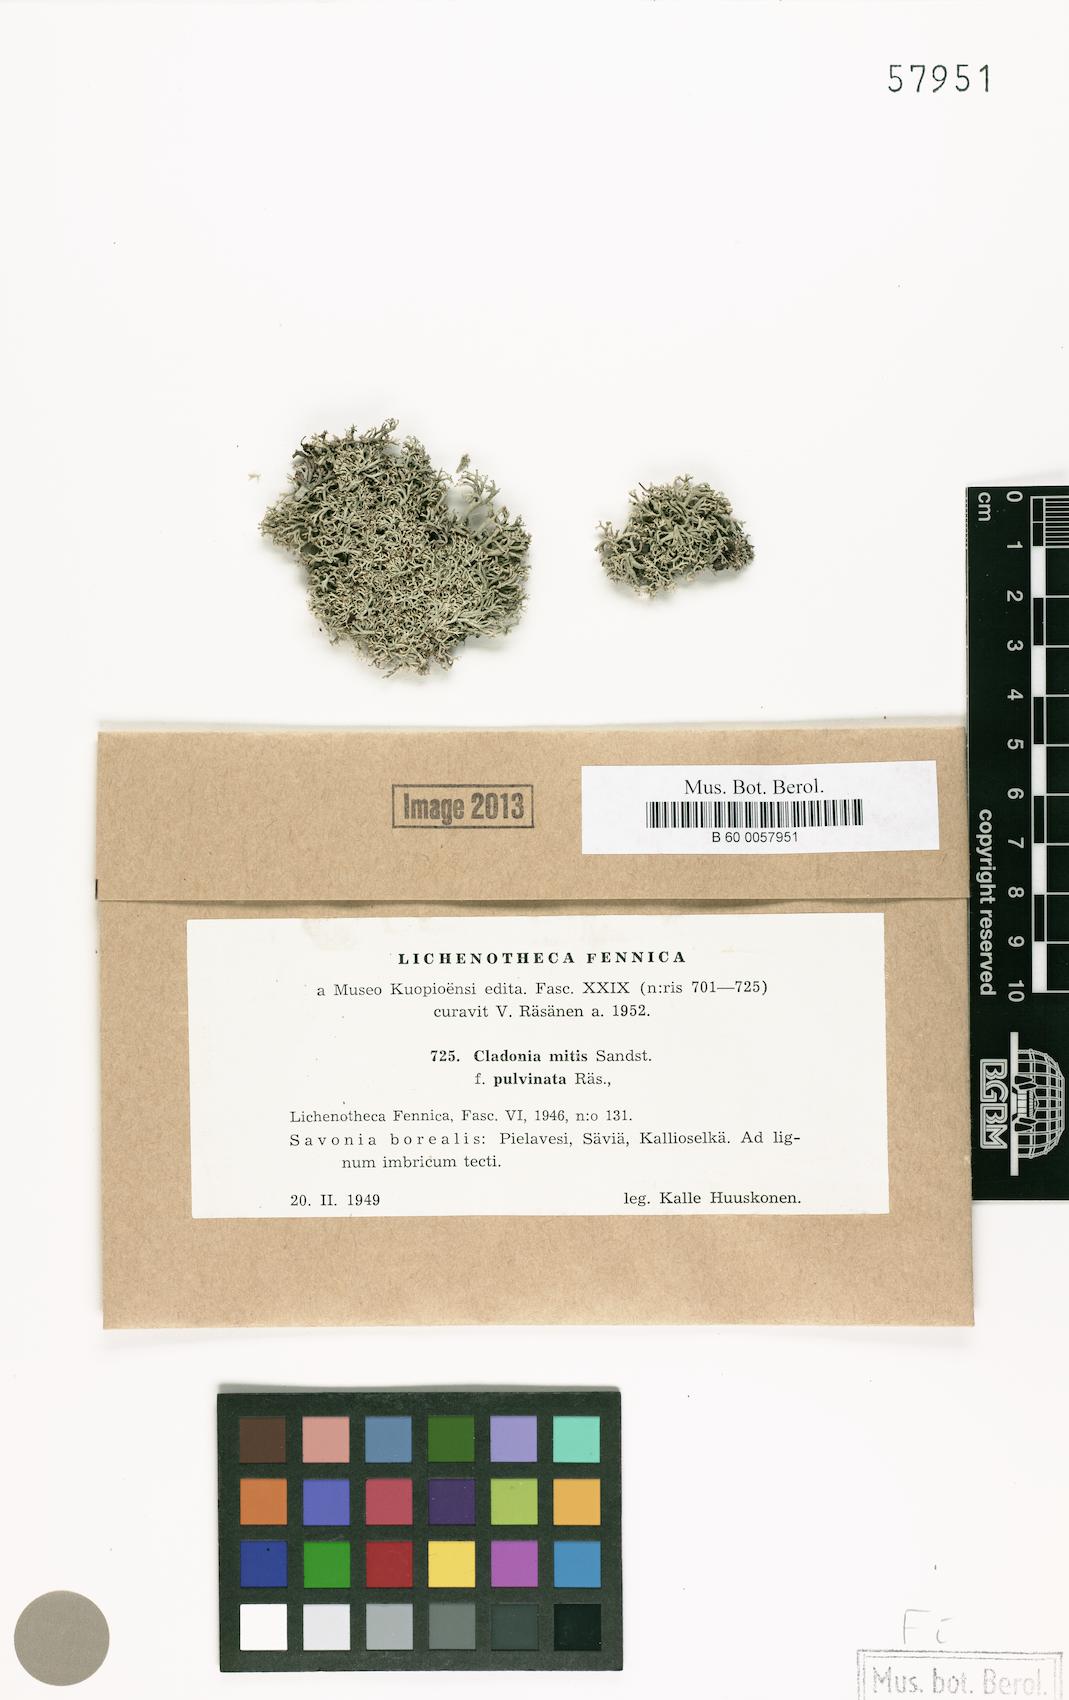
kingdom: Fungi
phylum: Ascomycota
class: Lecanoromycetes
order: Lecanorales
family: Cladoniaceae
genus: Cladonia
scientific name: Cladonia mitis
